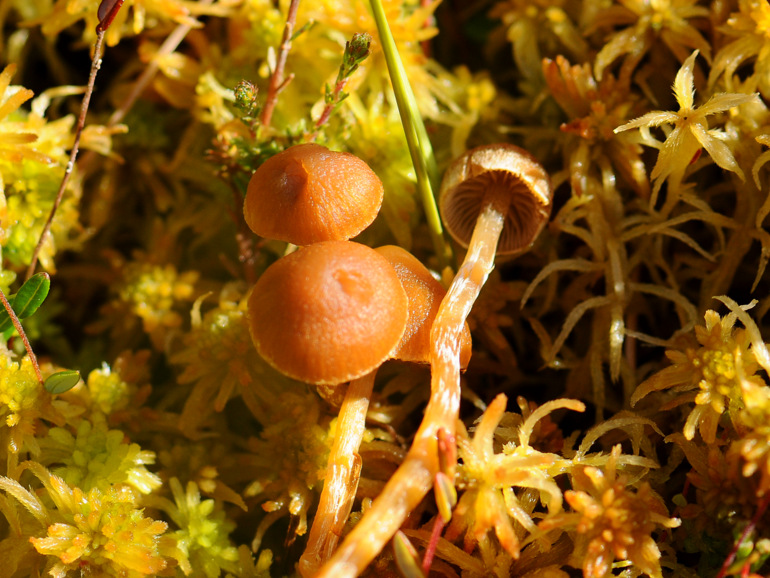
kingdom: Fungi
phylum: Basidiomycota
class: Agaricomycetes
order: Agaricales
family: Hymenogastraceae
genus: Galerina
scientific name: Galerina paludosa
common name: mose-hjelmhat
